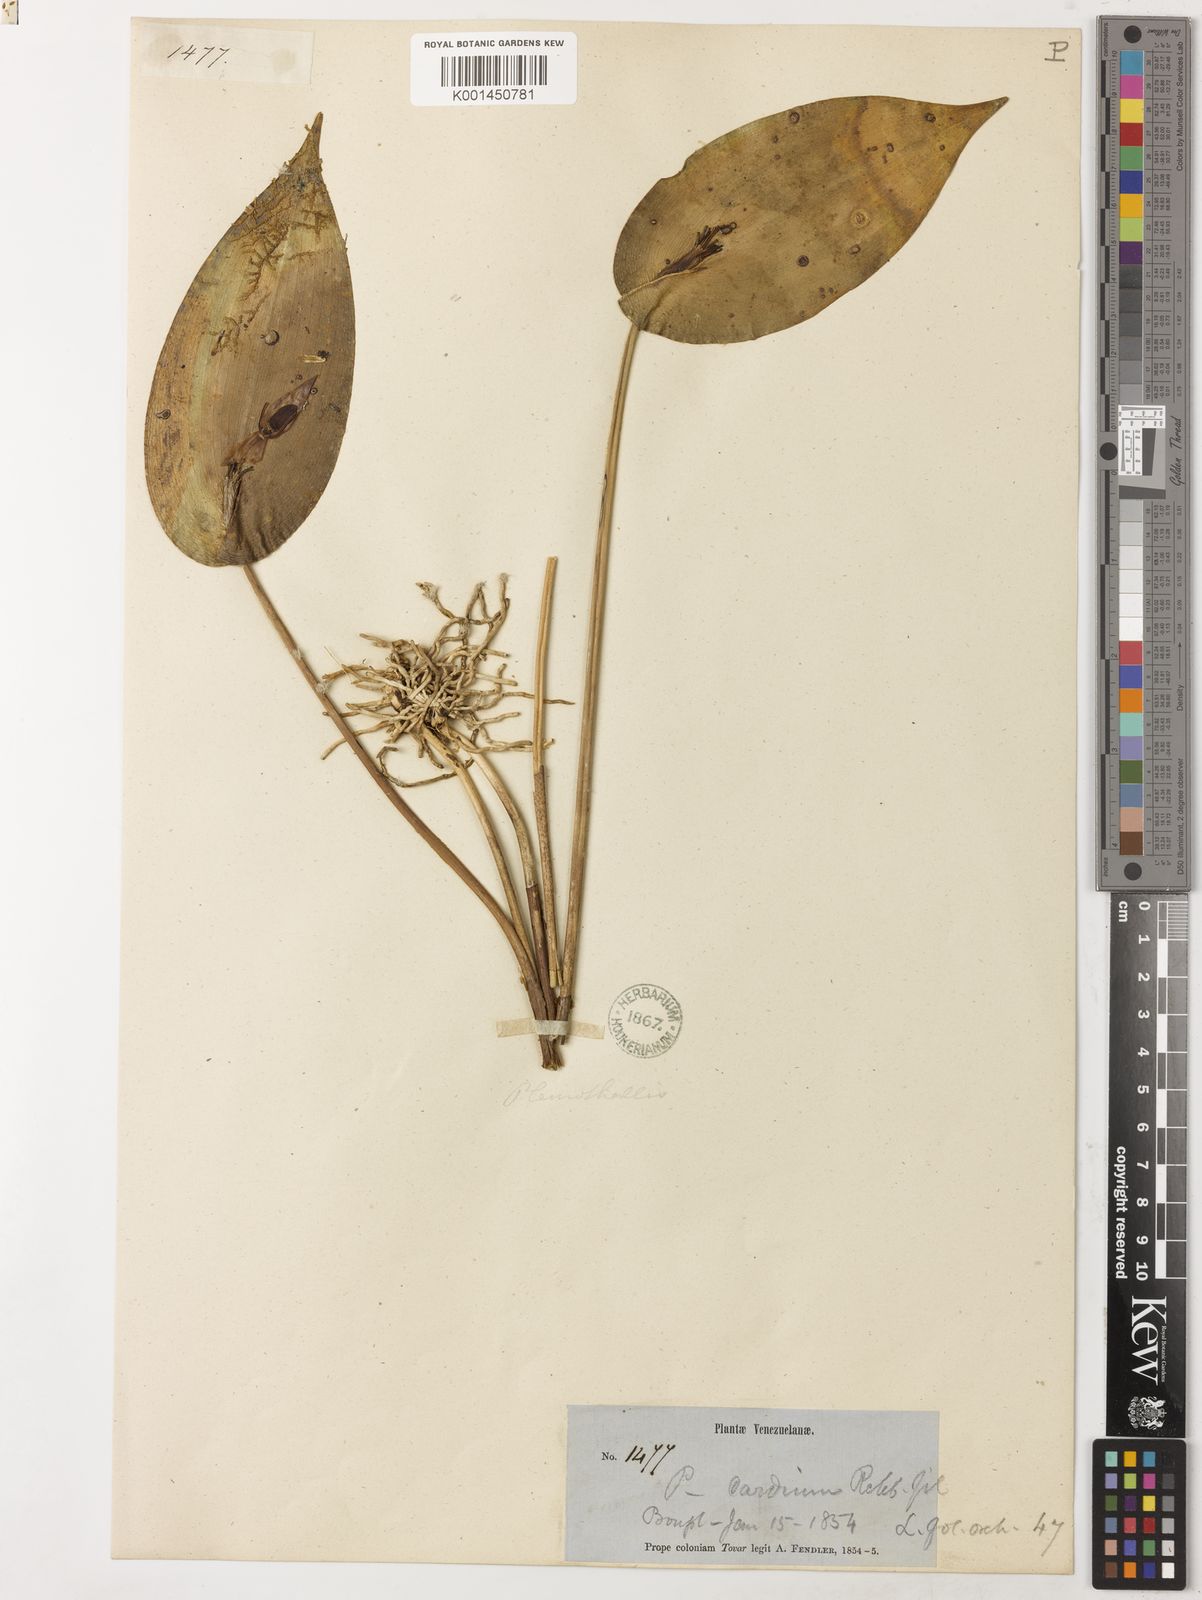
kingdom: Plantae
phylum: Tracheophyta
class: Liliopsida
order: Asparagales
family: Orchidaceae
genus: Pleurothallis
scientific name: Pleurothallis bivalvis
